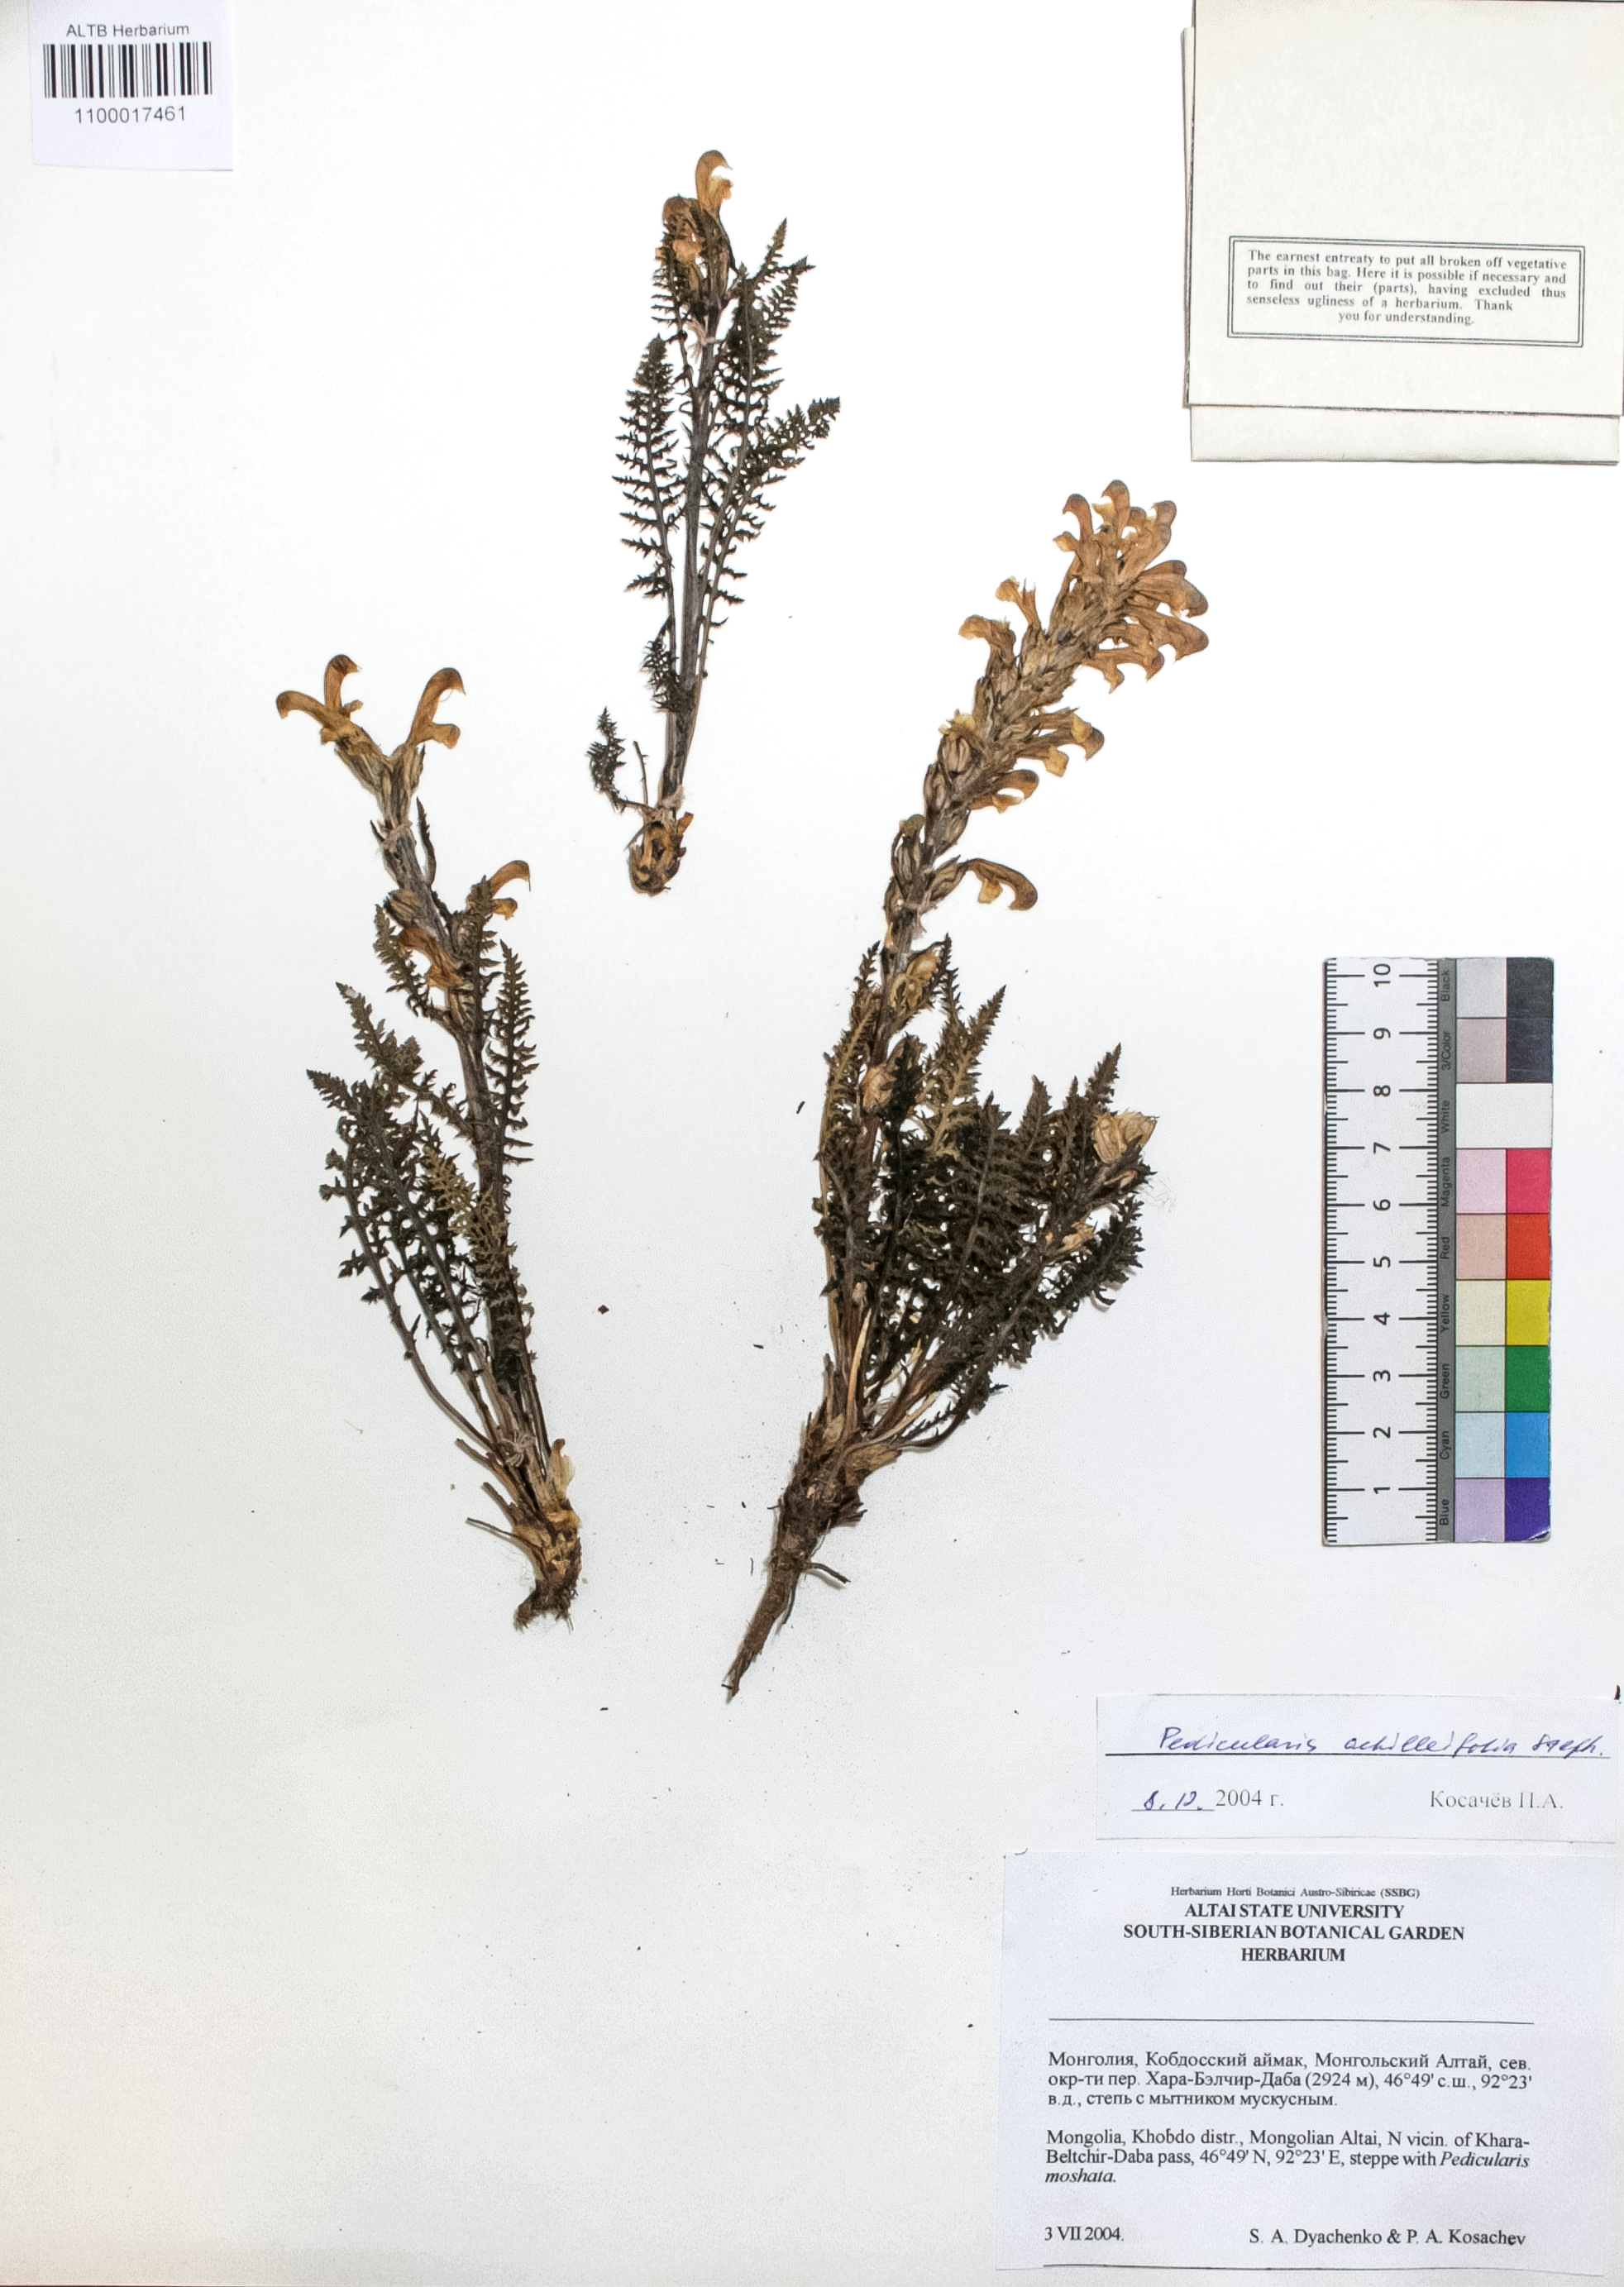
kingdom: Plantae
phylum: Tracheophyta
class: Magnoliopsida
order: Lamiales
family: Orobanchaceae
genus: Pedicularis
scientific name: Pedicularis achilleifolia
